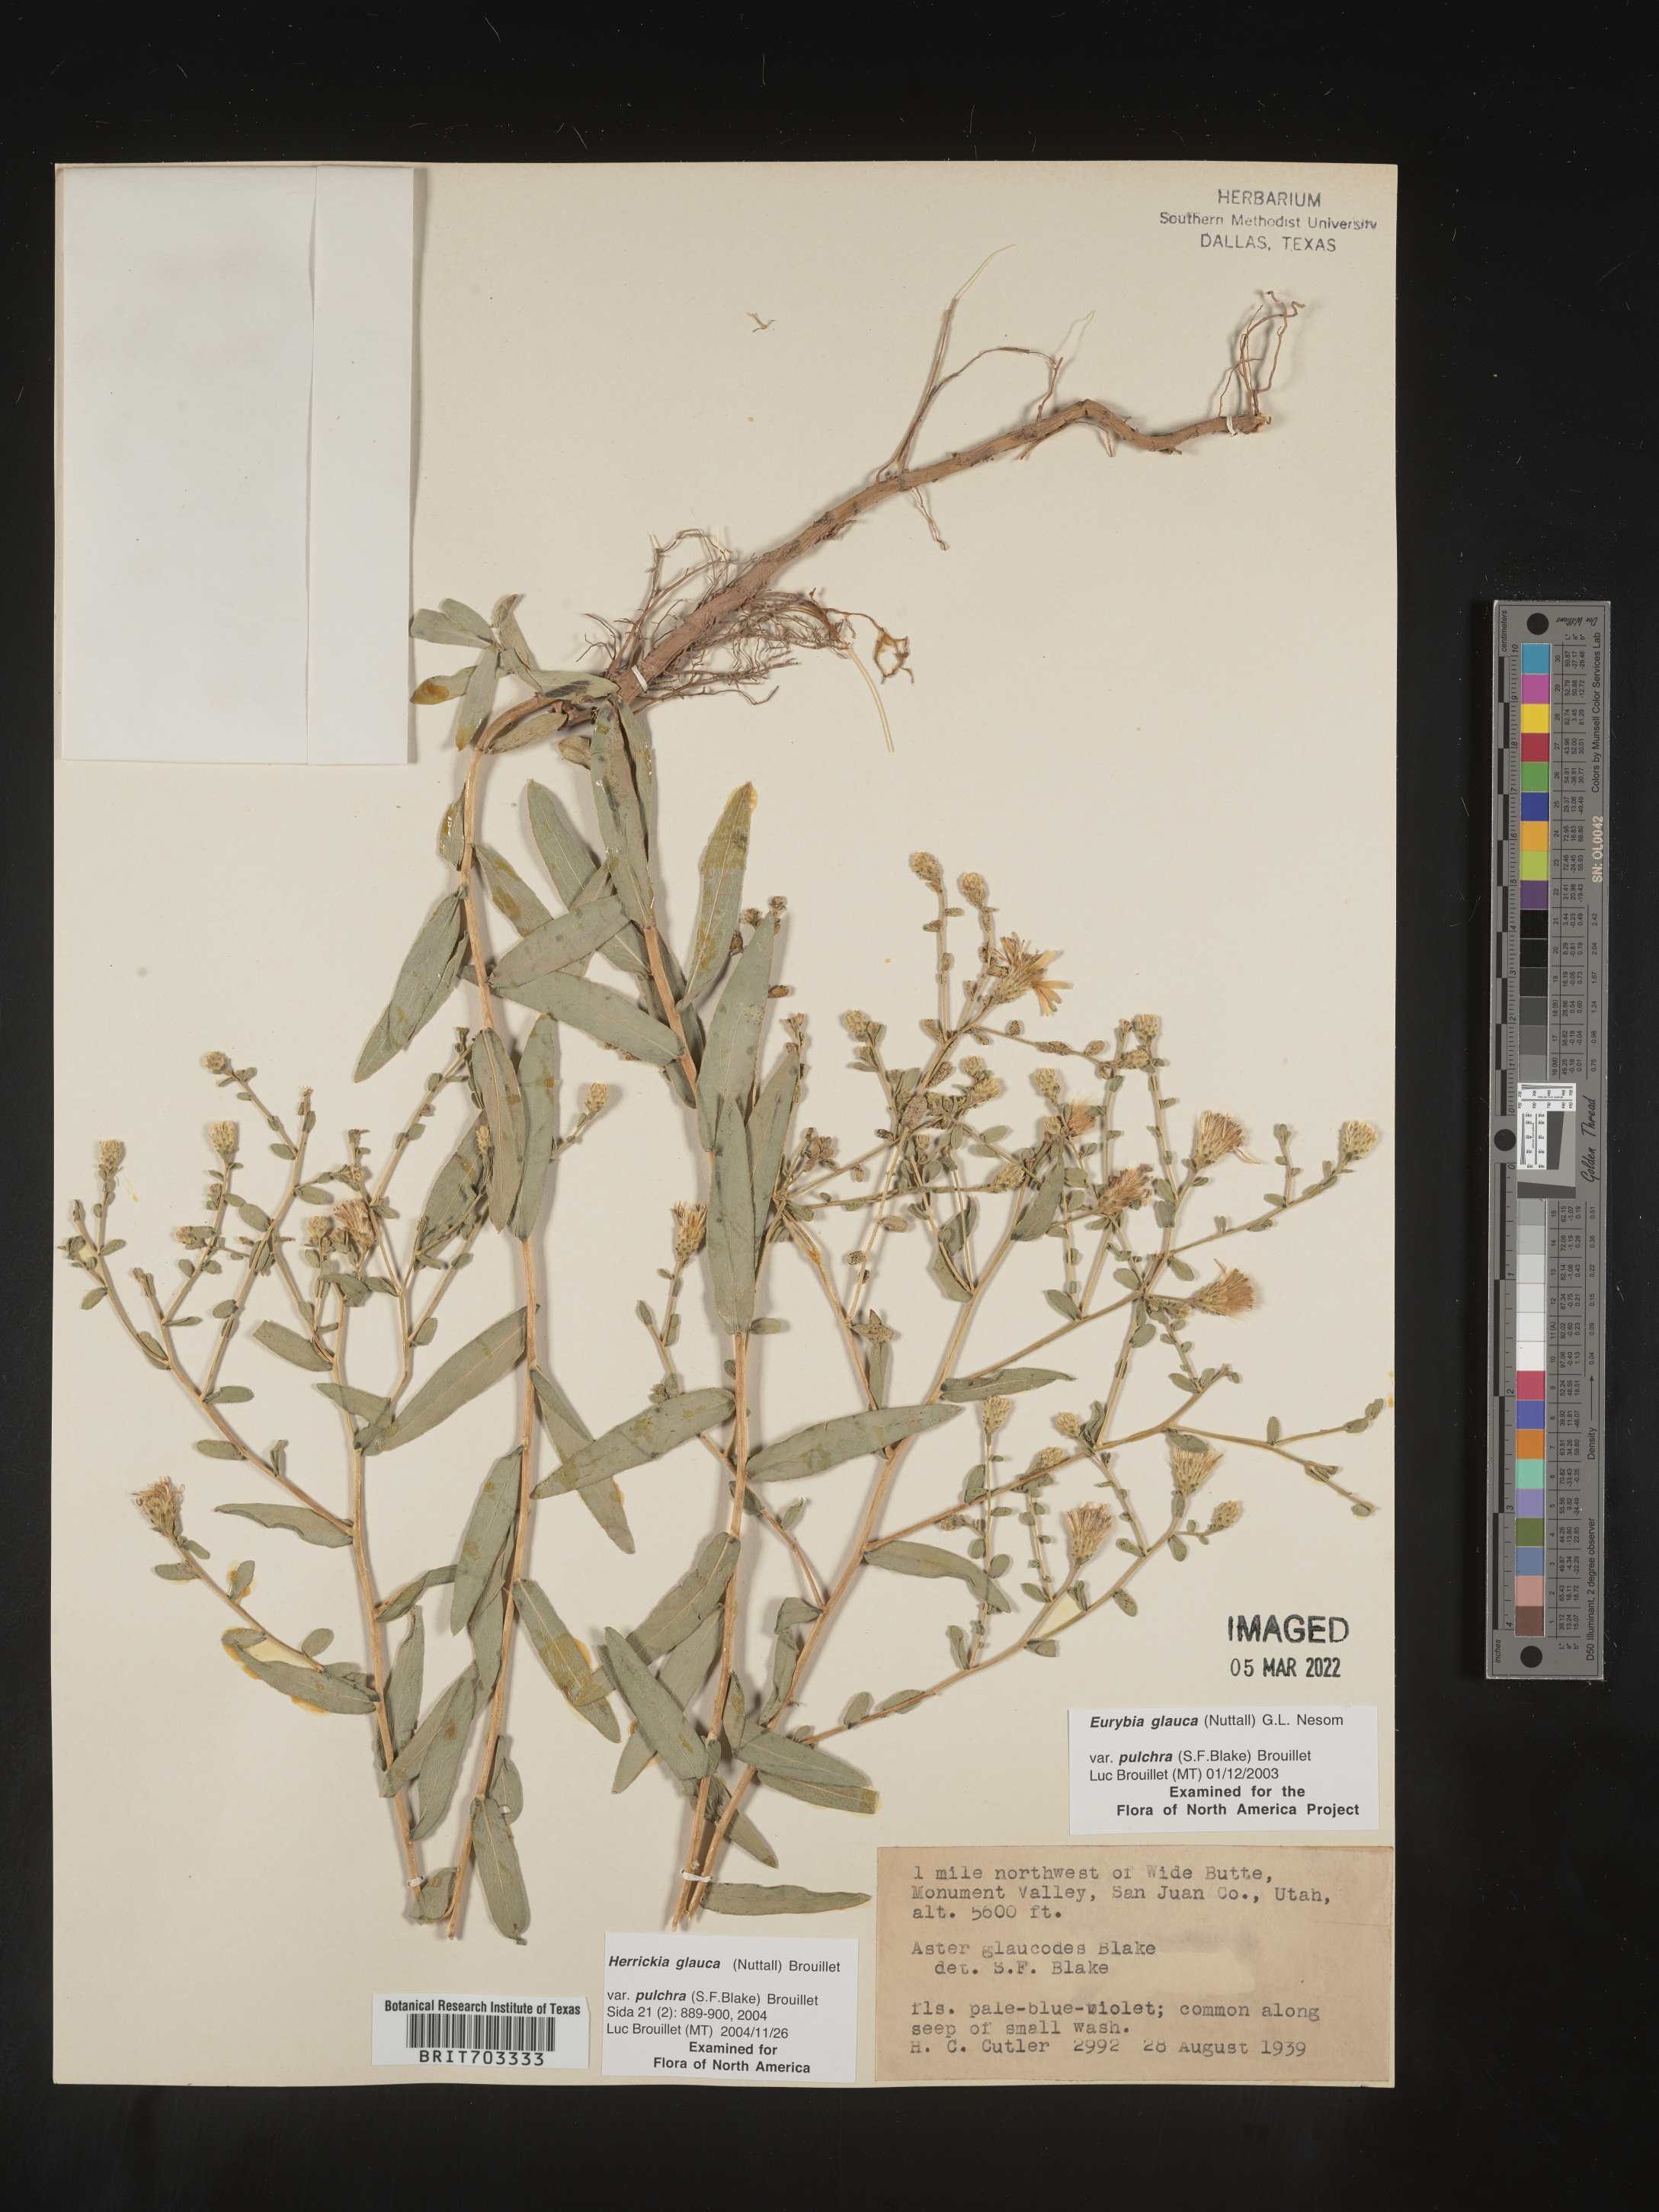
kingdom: Plantae
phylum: Tracheophyta
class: Magnoliopsida
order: Asterales
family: Asteraceae
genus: Eurybia
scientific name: Eurybia glauca
